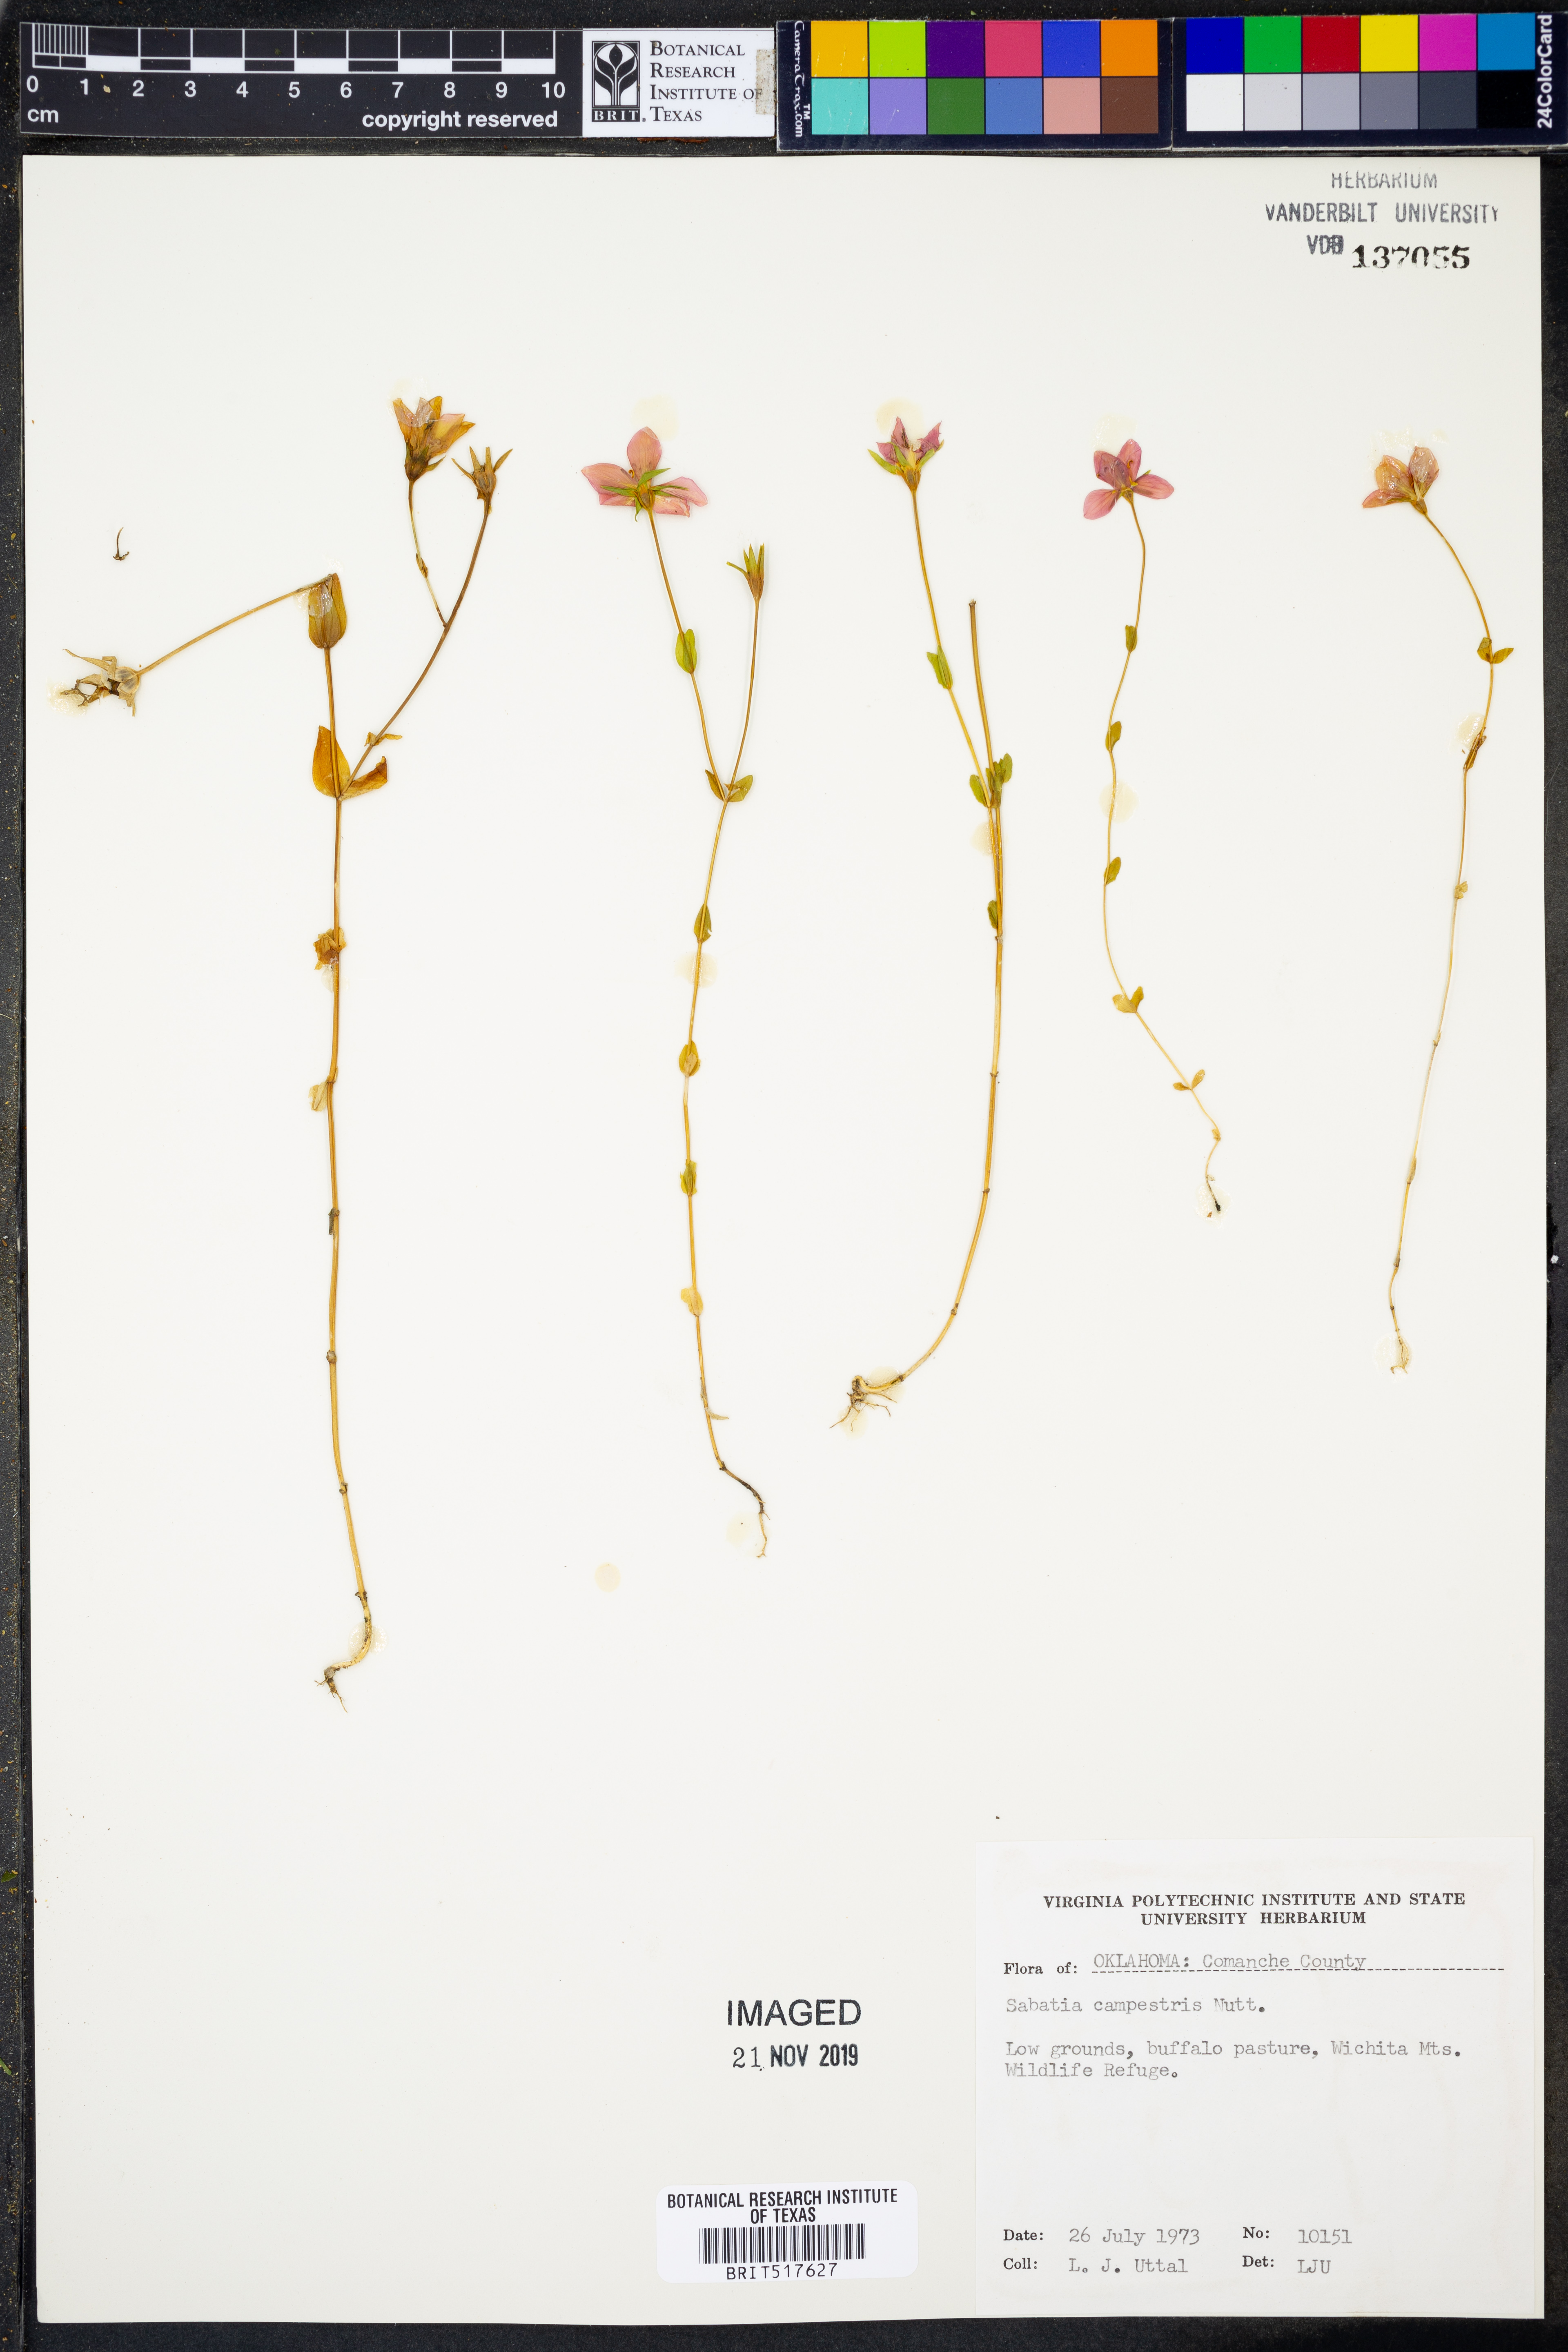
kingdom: Plantae
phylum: Tracheophyta
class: Magnoliopsida
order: Gentianales
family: Gentianaceae
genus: Sabatia
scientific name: Sabatia campestris
